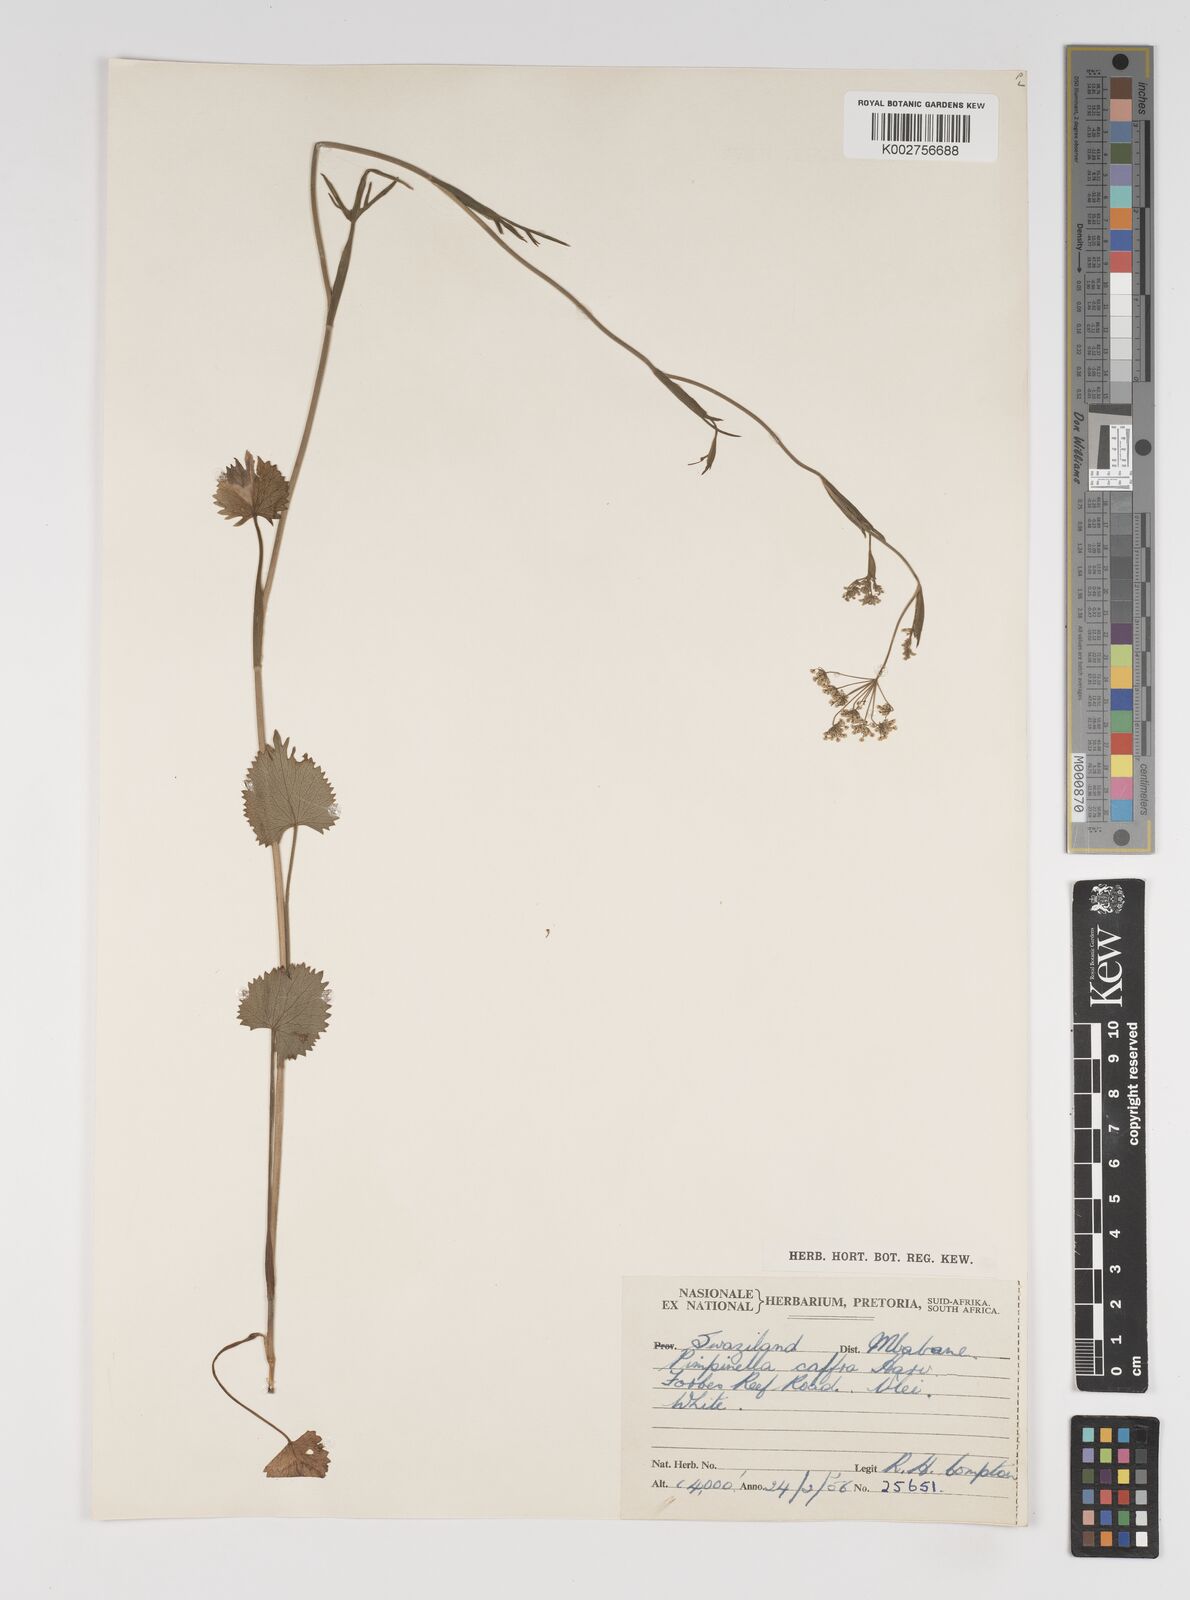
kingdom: Plantae
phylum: Tracheophyta
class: Magnoliopsida
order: Apiales
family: Apiaceae
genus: Pimpinella
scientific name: Pimpinella
